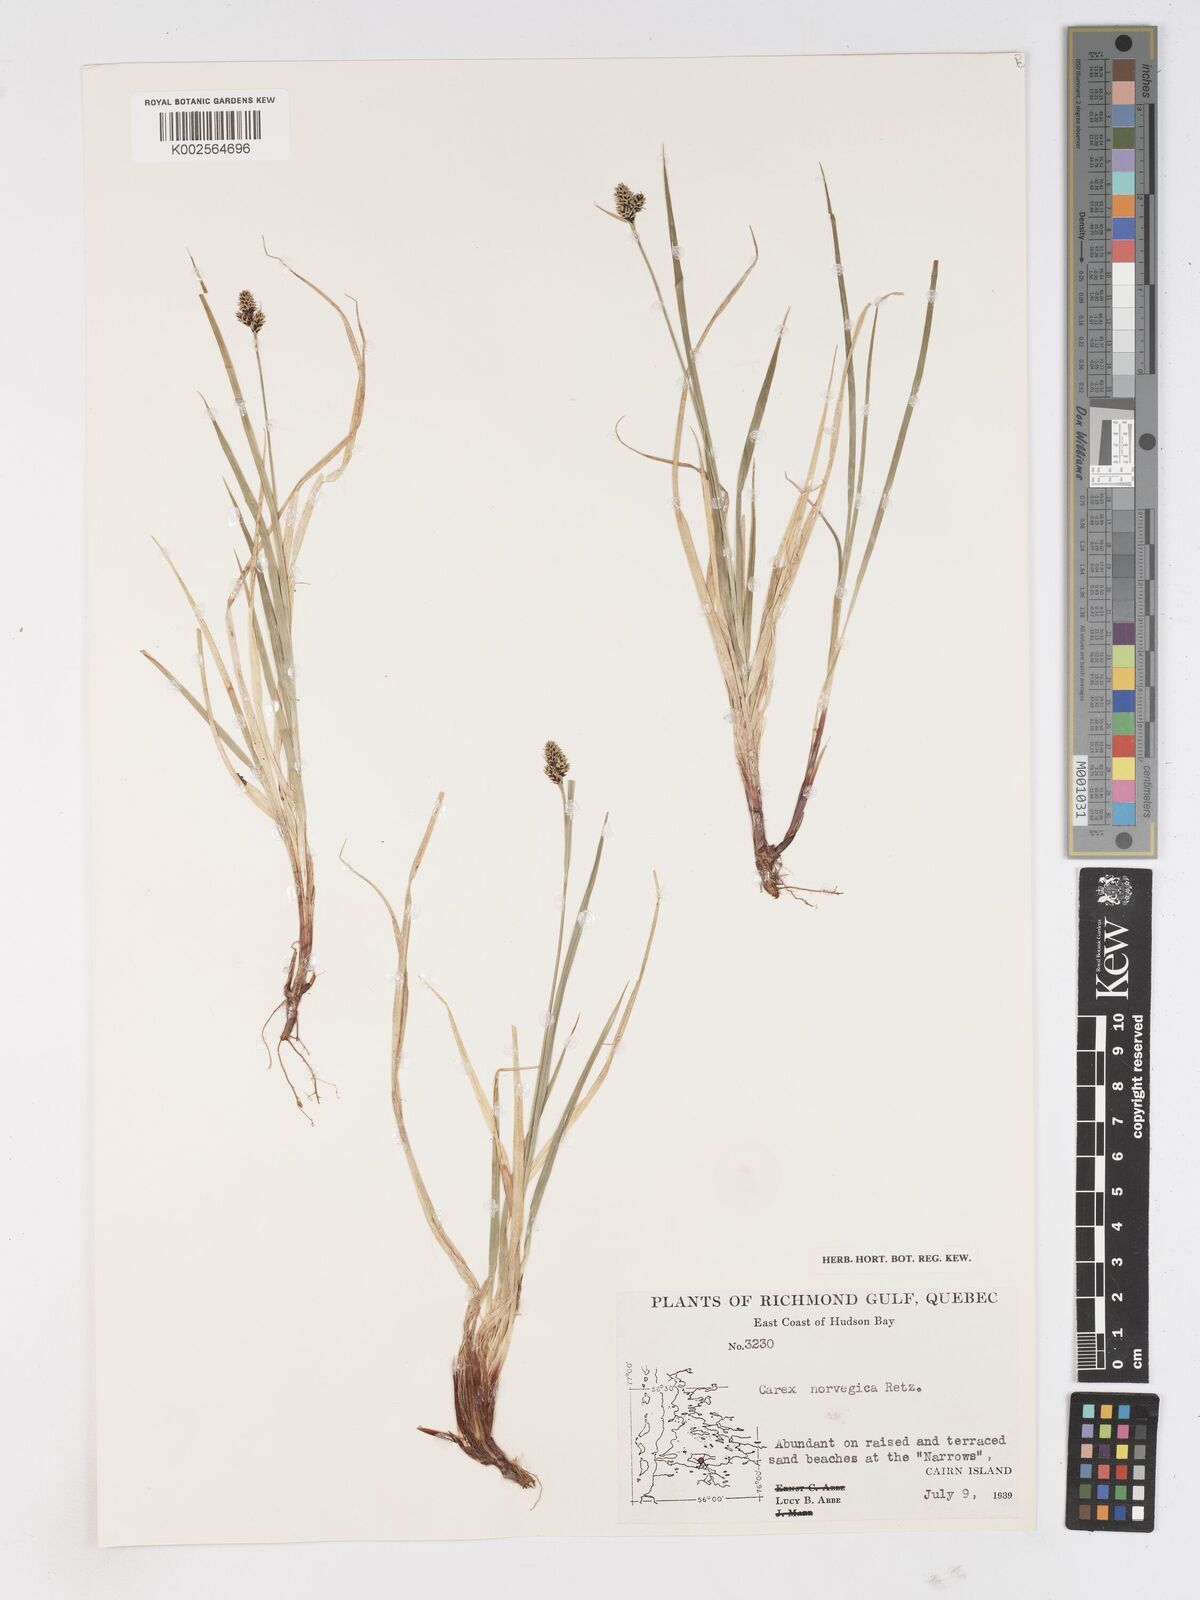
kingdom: Plantae
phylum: Tracheophyta
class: Liliopsida
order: Poales
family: Cyperaceae
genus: Carex
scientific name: Carex norvegica
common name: Close-headed alpine-sedge
